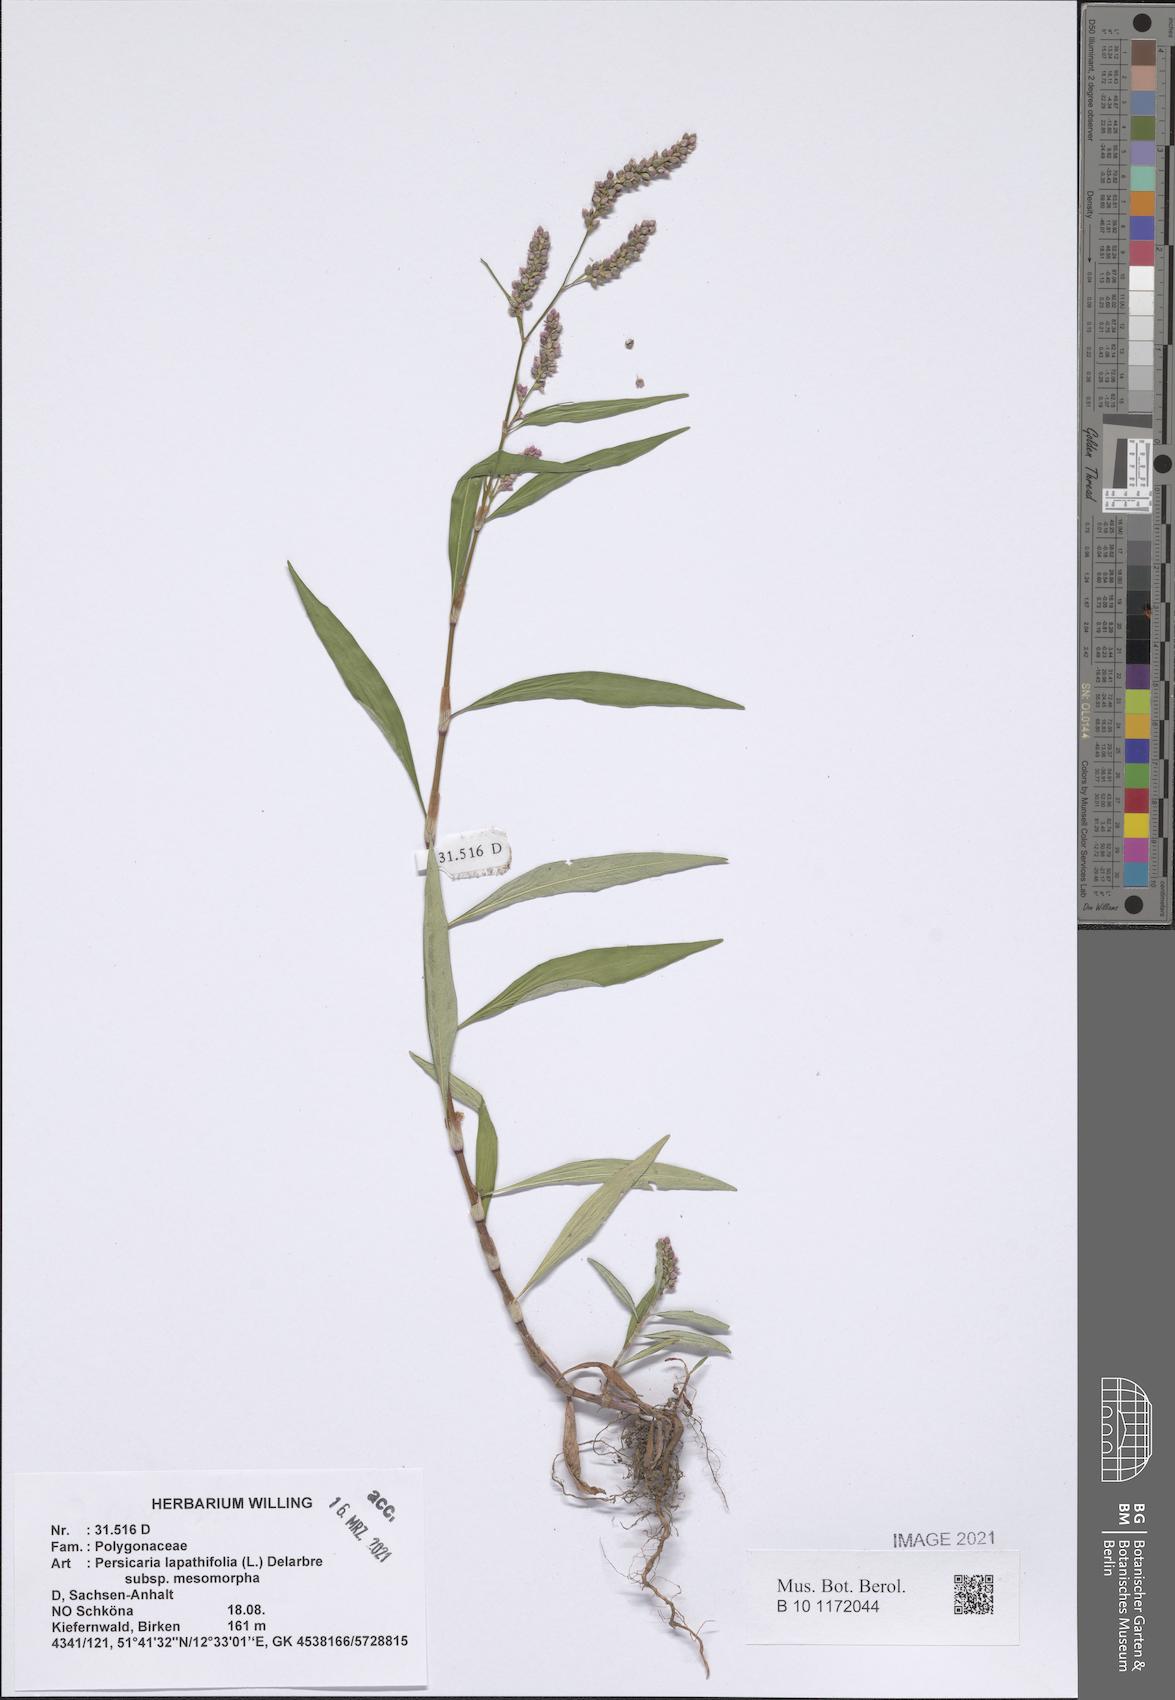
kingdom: Plantae
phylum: Tracheophyta
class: Magnoliopsida
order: Caryophyllales
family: Polygonaceae
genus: Persicaria
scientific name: Persicaria lapathifolia
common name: Curlytop knotweed
